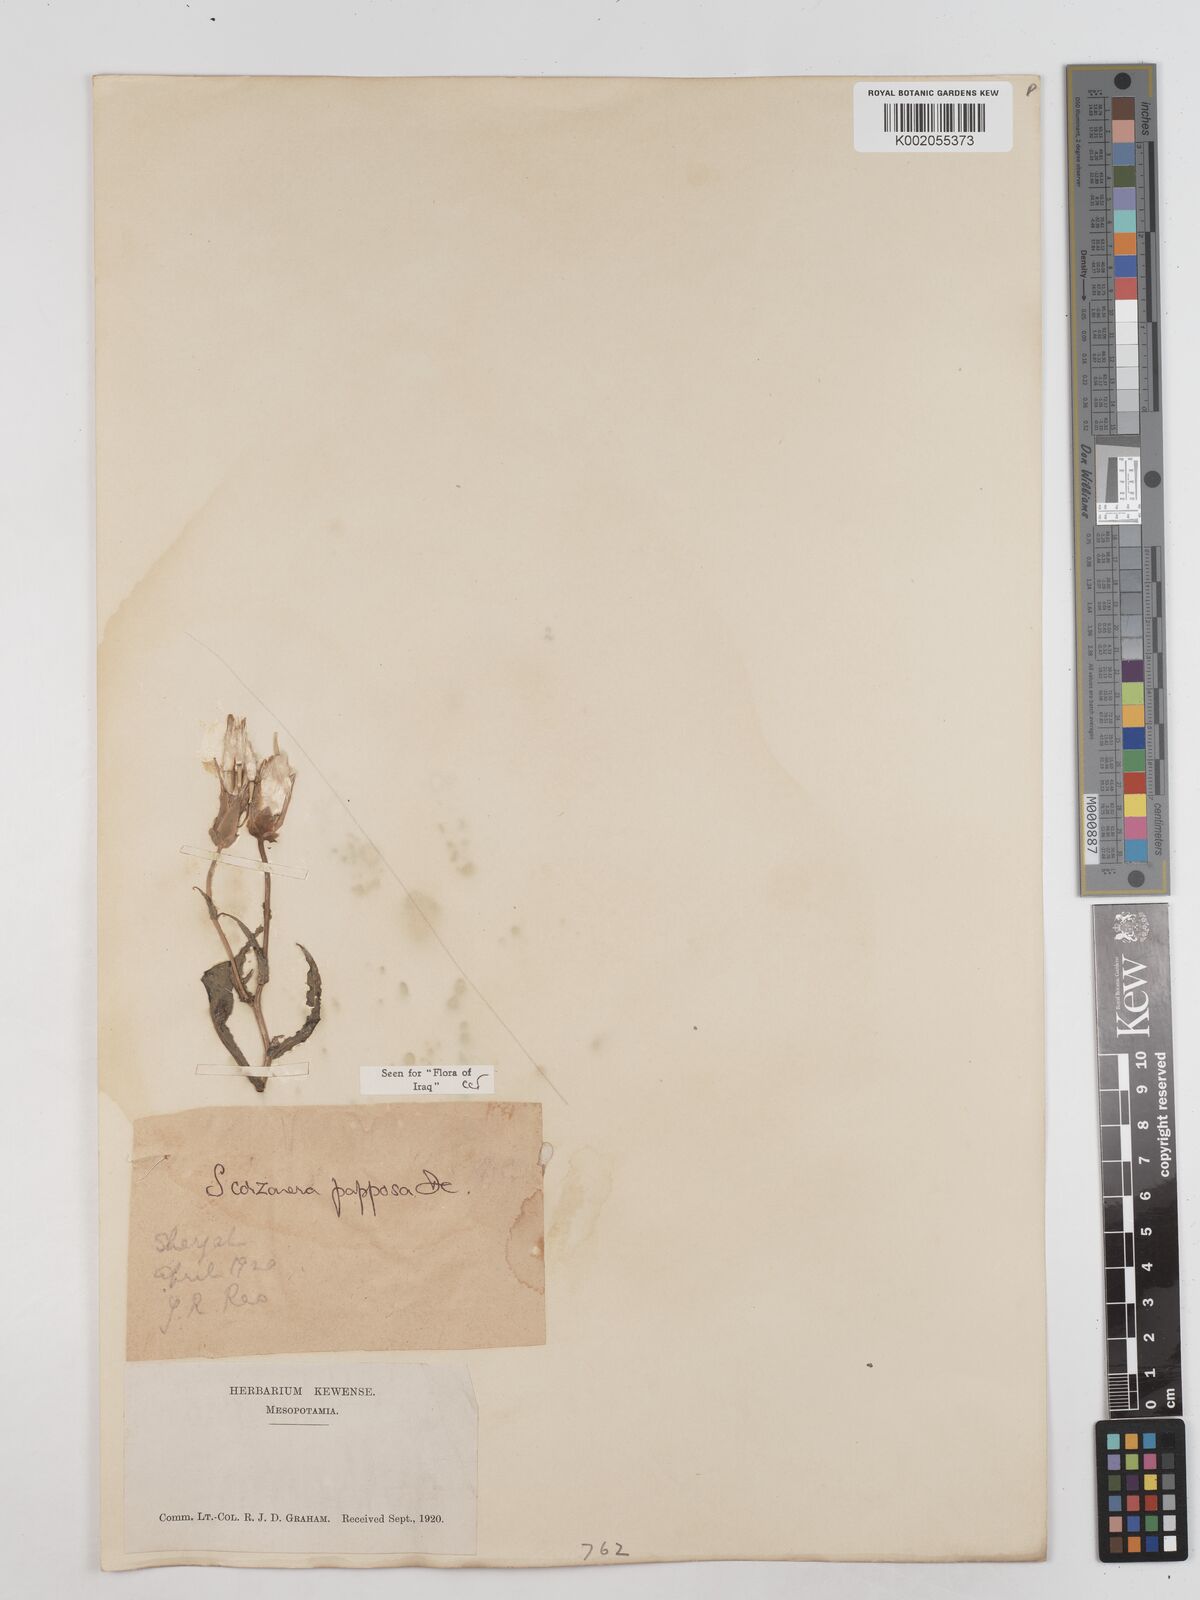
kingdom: Plantae
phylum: Tracheophyta
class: Magnoliopsida
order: Asterales
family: Asteraceae
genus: Pseudopodospermum
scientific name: Pseudopodospermum papposum
